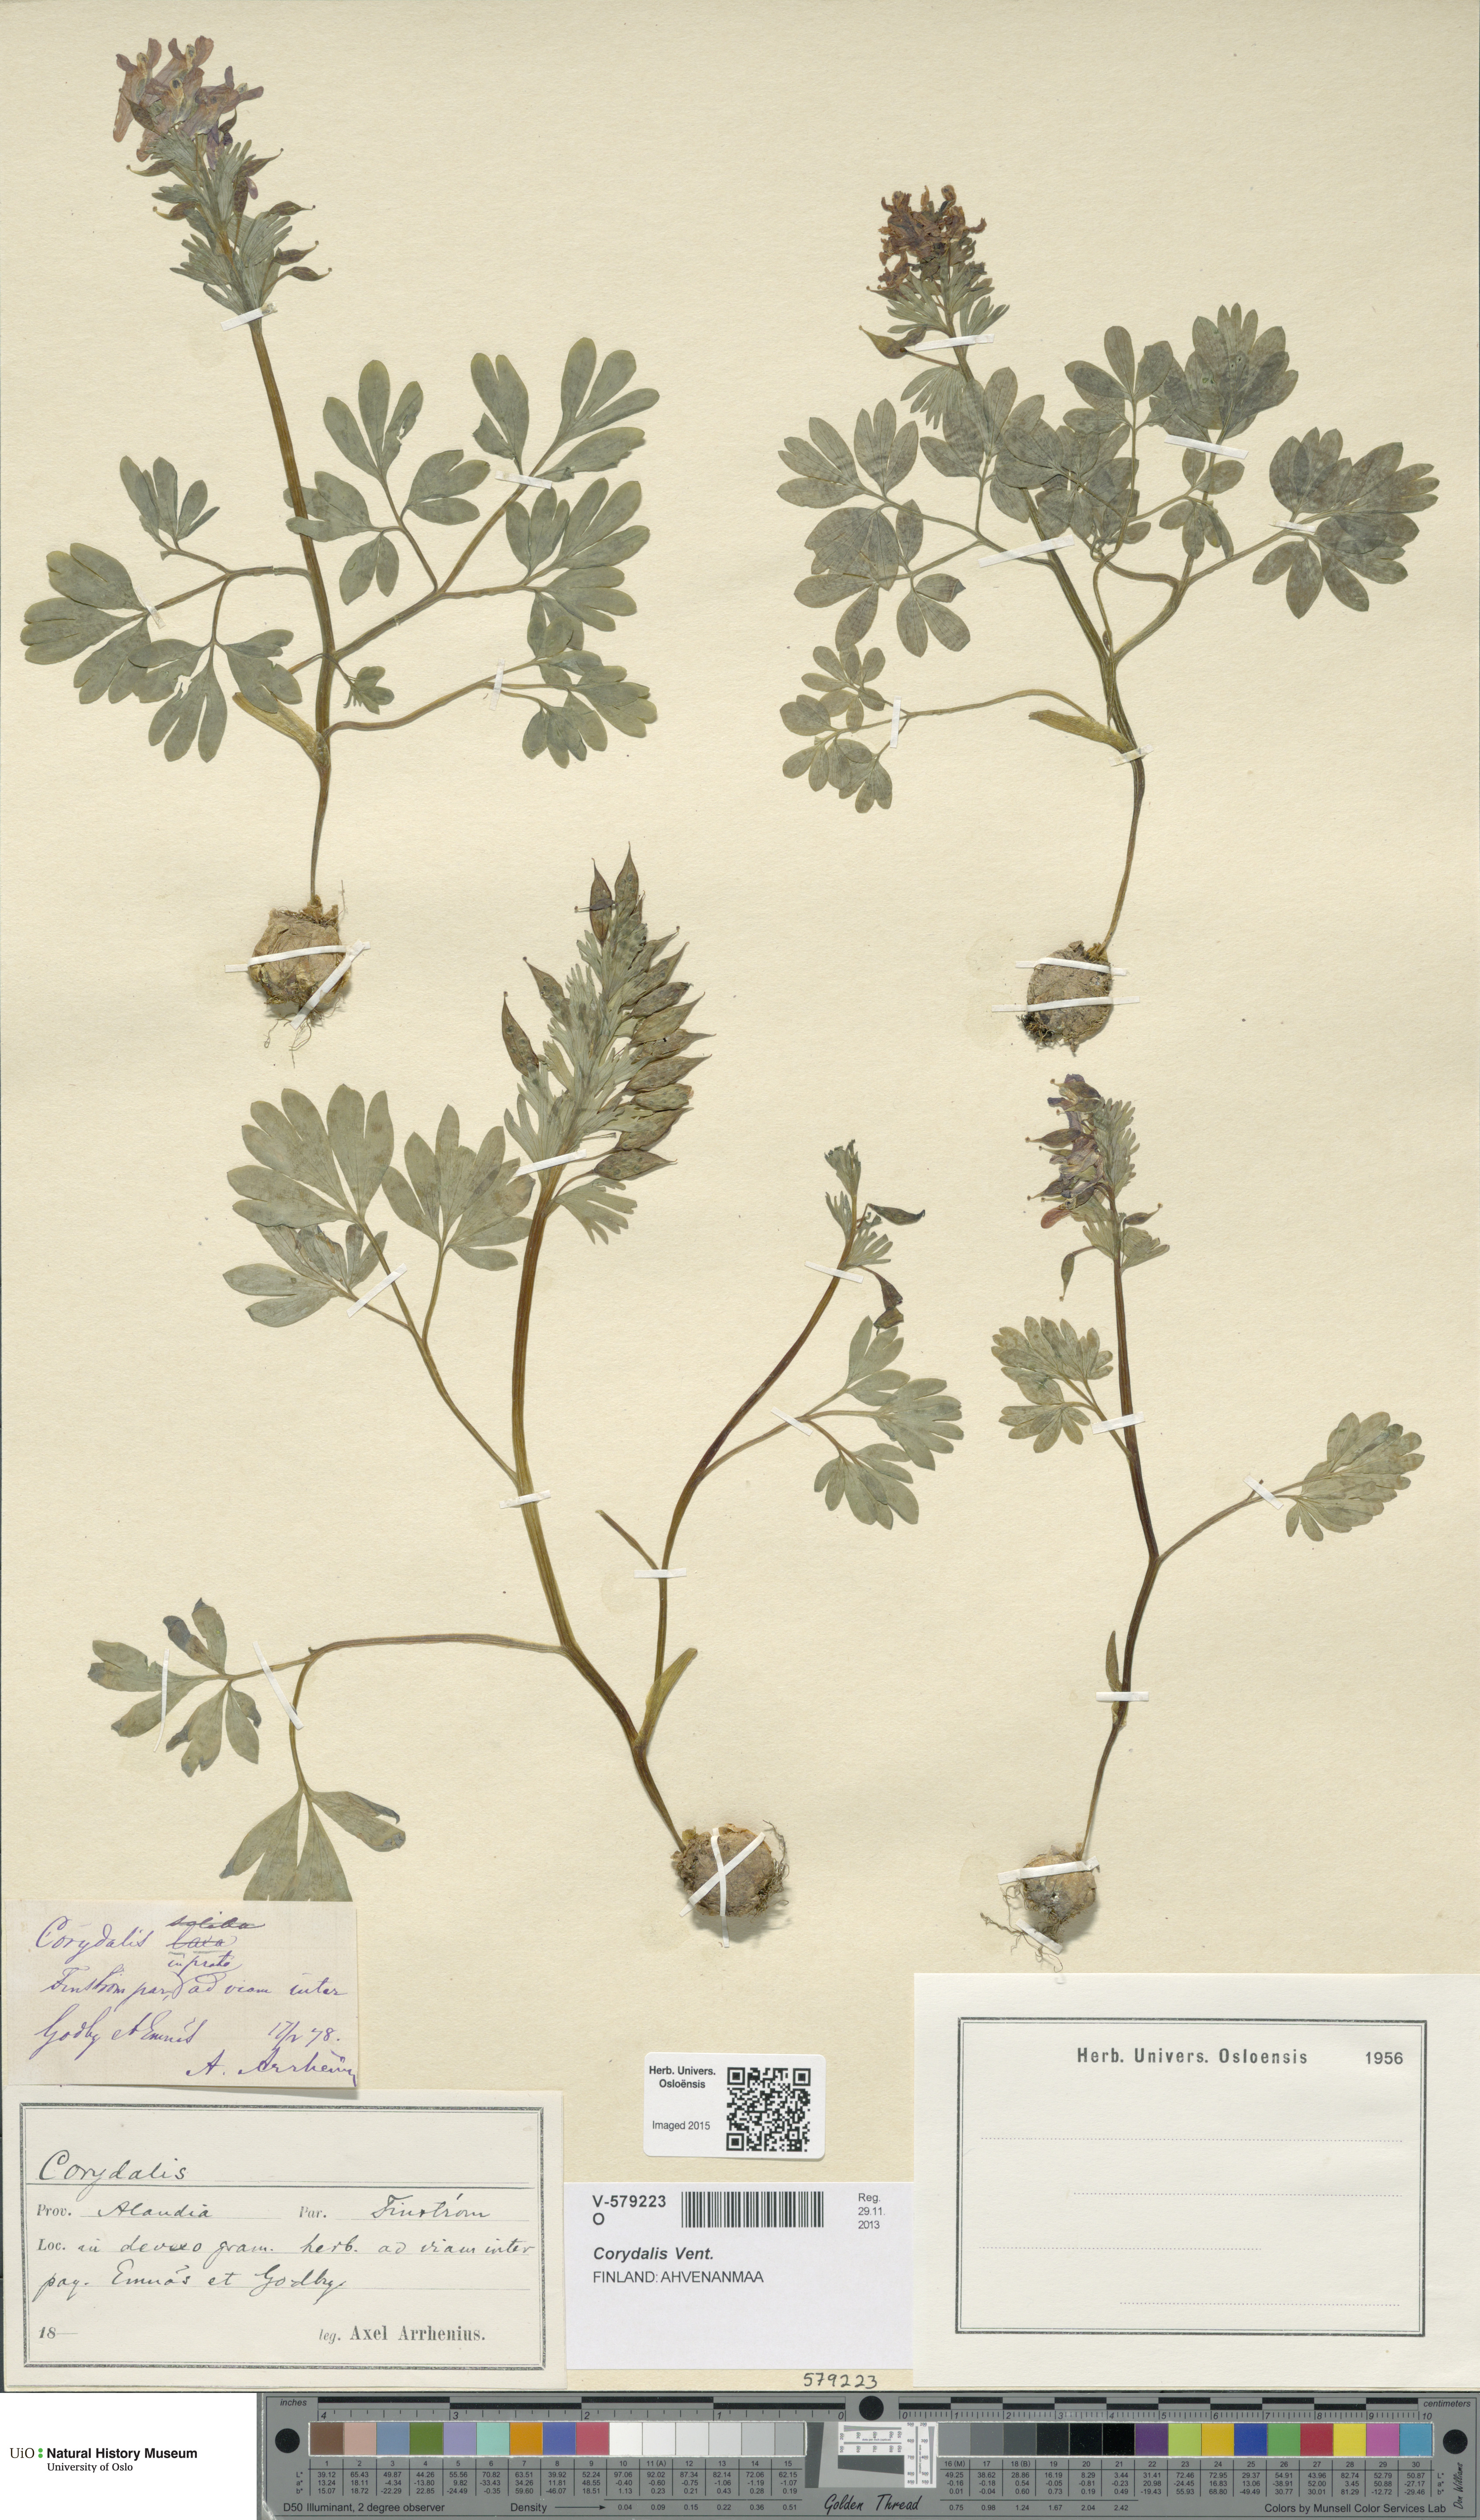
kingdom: Plantae
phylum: Tracheophyta
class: Magnoliopsida
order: Ranunculales
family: Papaveraceae
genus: Corydalis
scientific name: Corydalis
